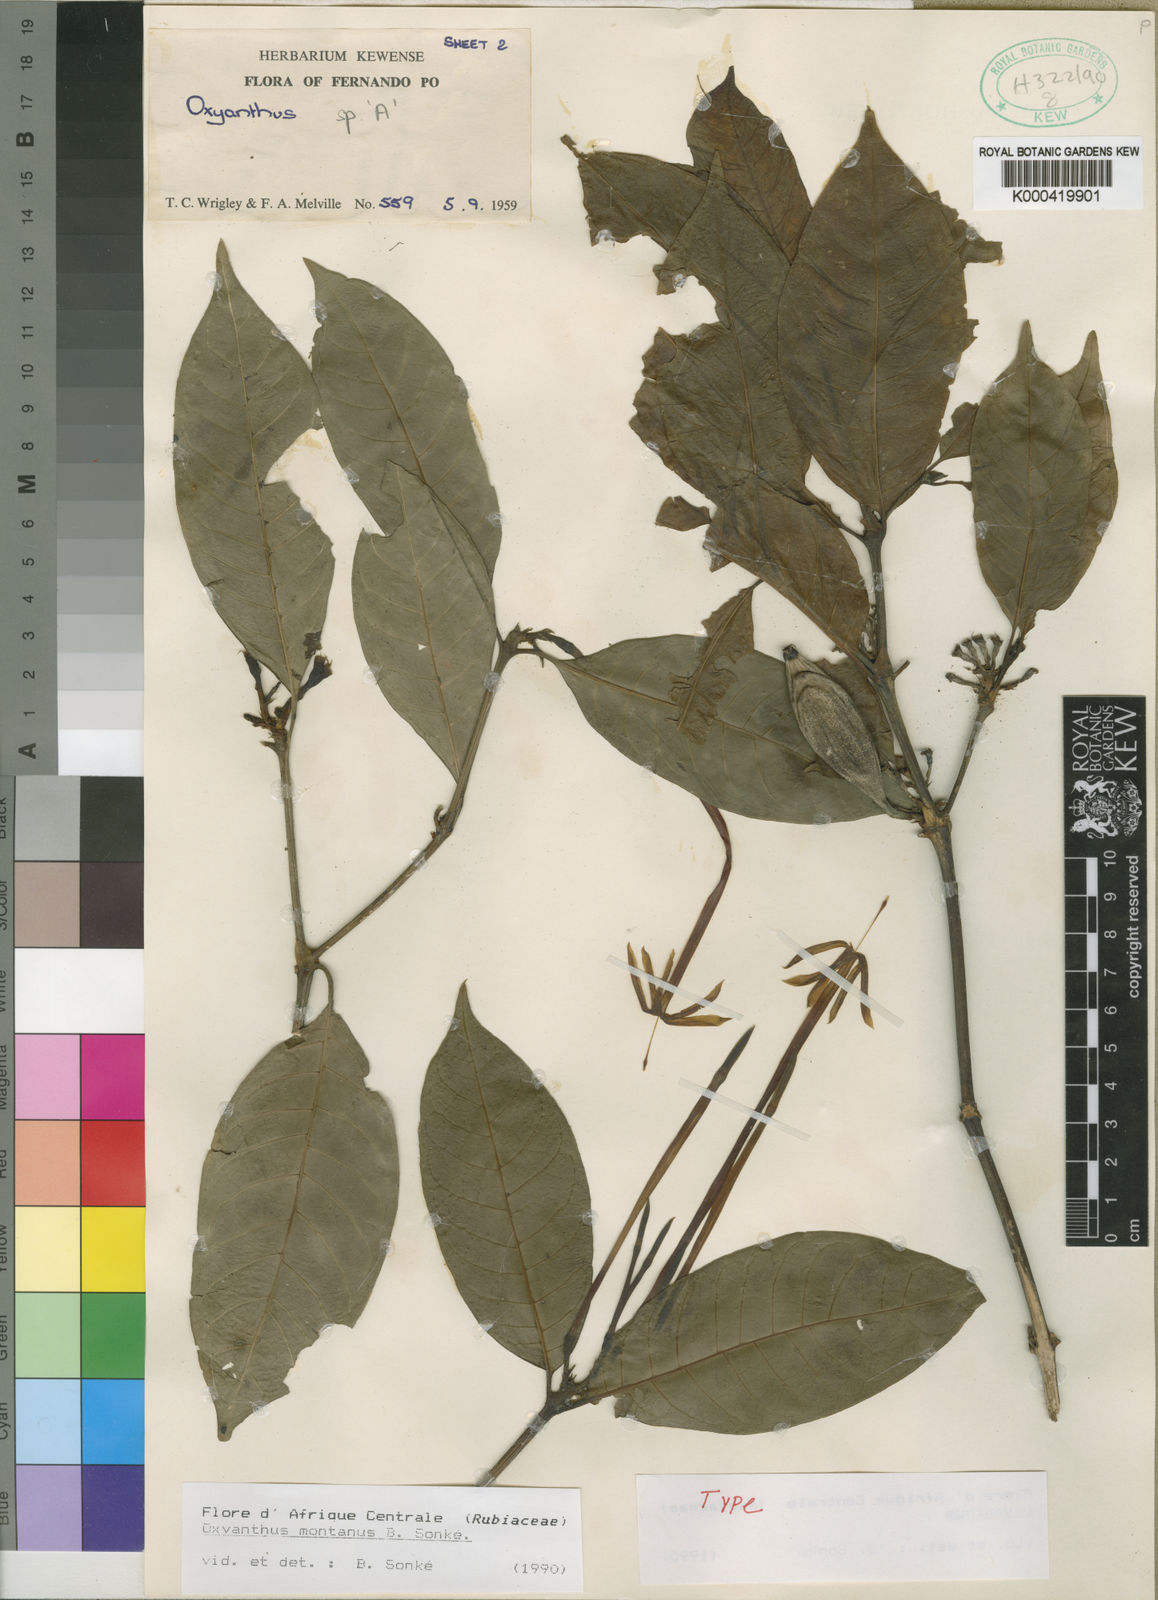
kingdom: Plantae
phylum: Tracheophyta
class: Magnoliopsida
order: Gentianales
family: Rubiaceae
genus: Oxyanthus
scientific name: Oxyanthus
